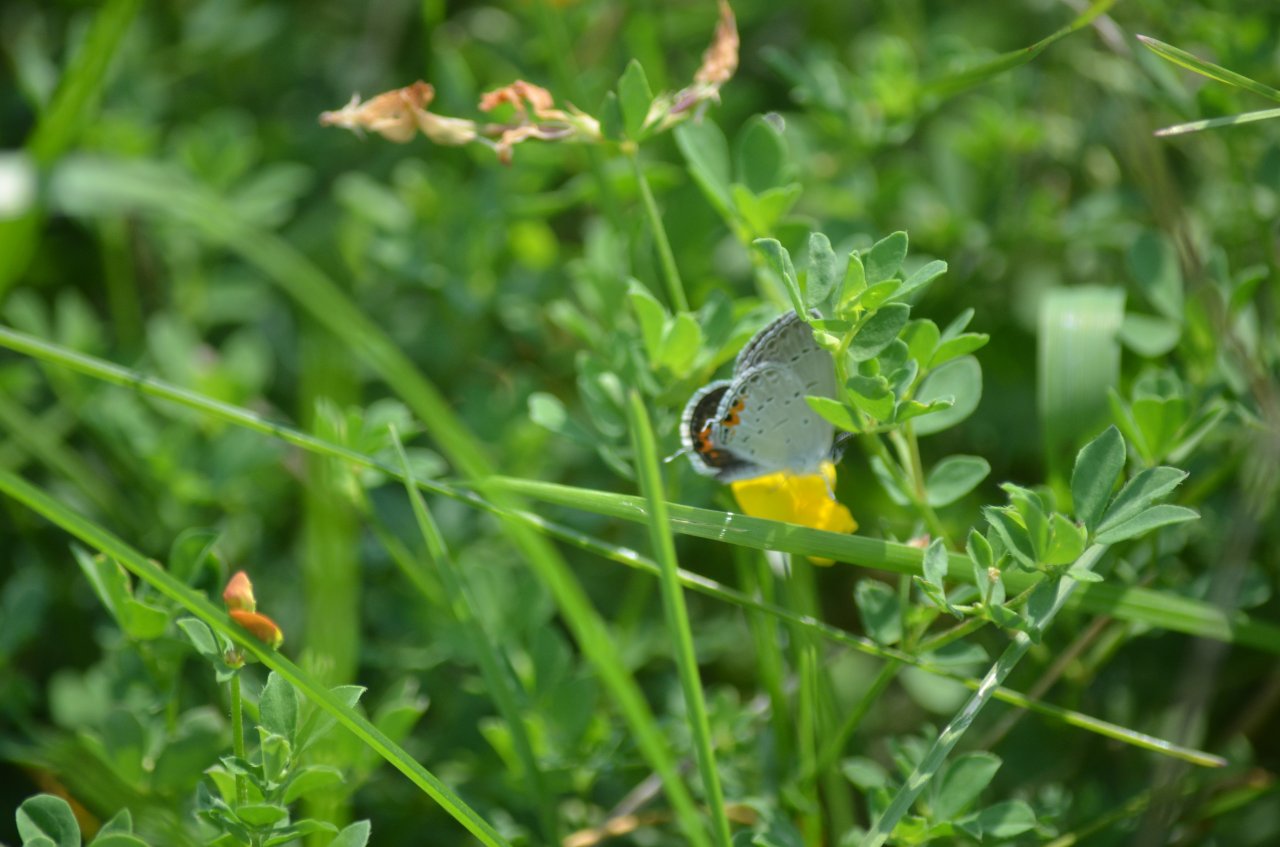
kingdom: Animalia
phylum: Arthropoda
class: Insecta
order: Lepidoptera
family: Lycaenidae
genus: Elkalyce
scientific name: Elkalyce comyntas
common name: Eastern Tailed-Blue
